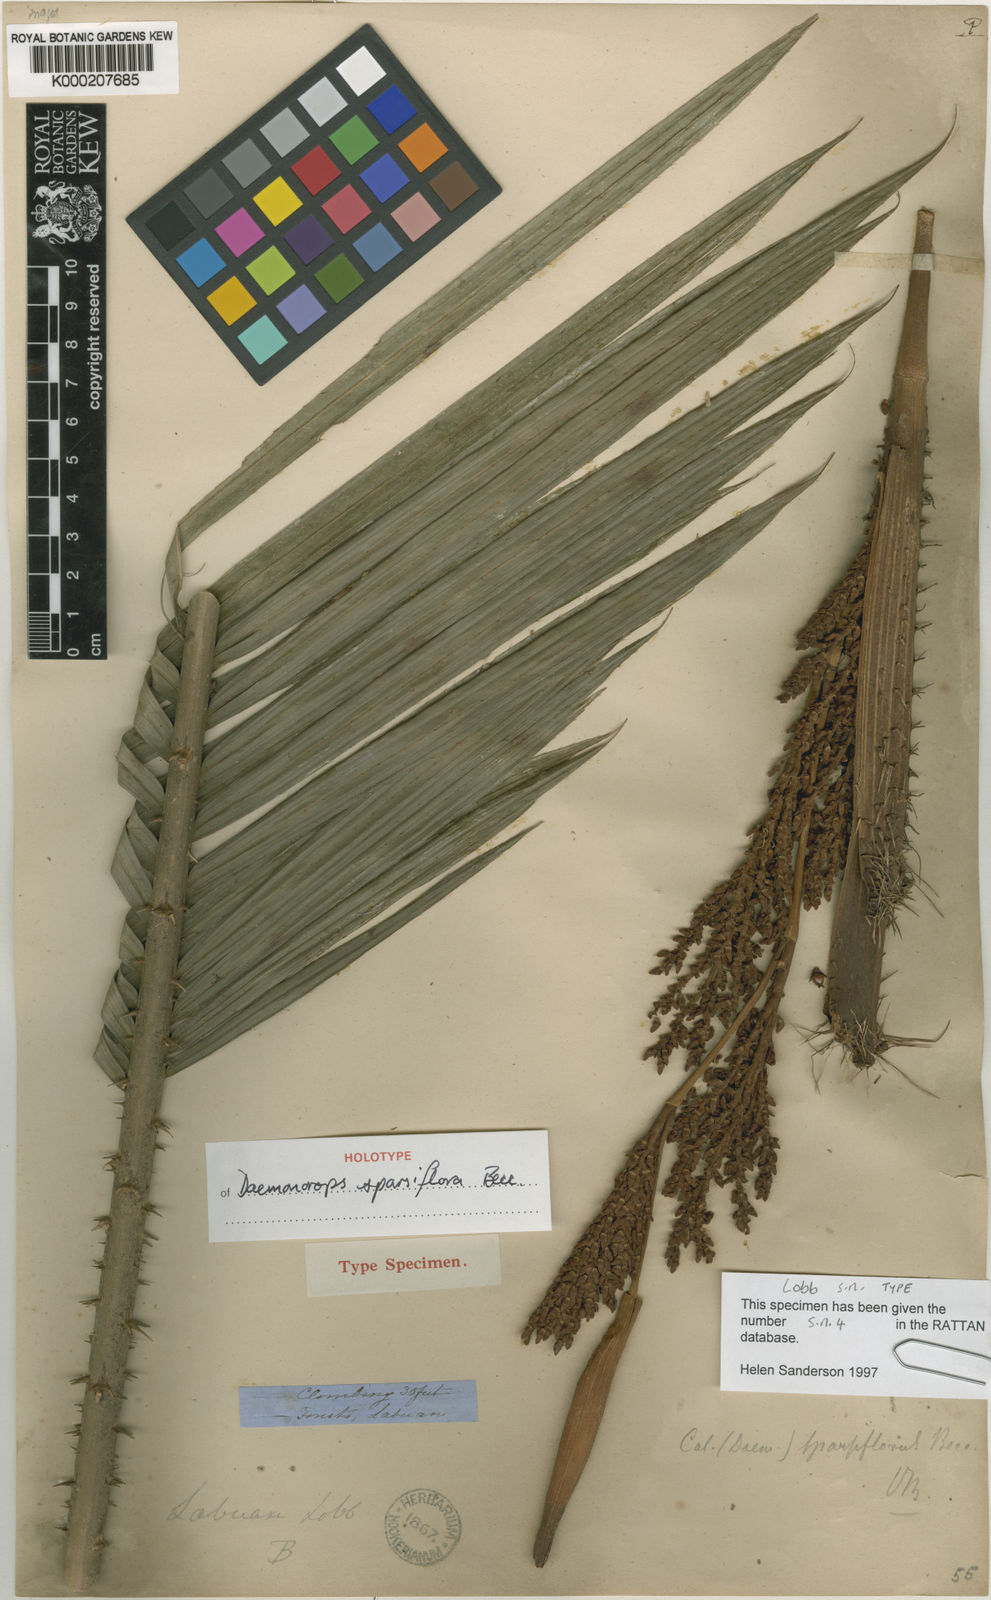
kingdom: Plantae
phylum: Tracheophyta
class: Liliopsida
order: Arecales
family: Arecaceae
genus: Calamus
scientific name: Calamus sparsiflorus
